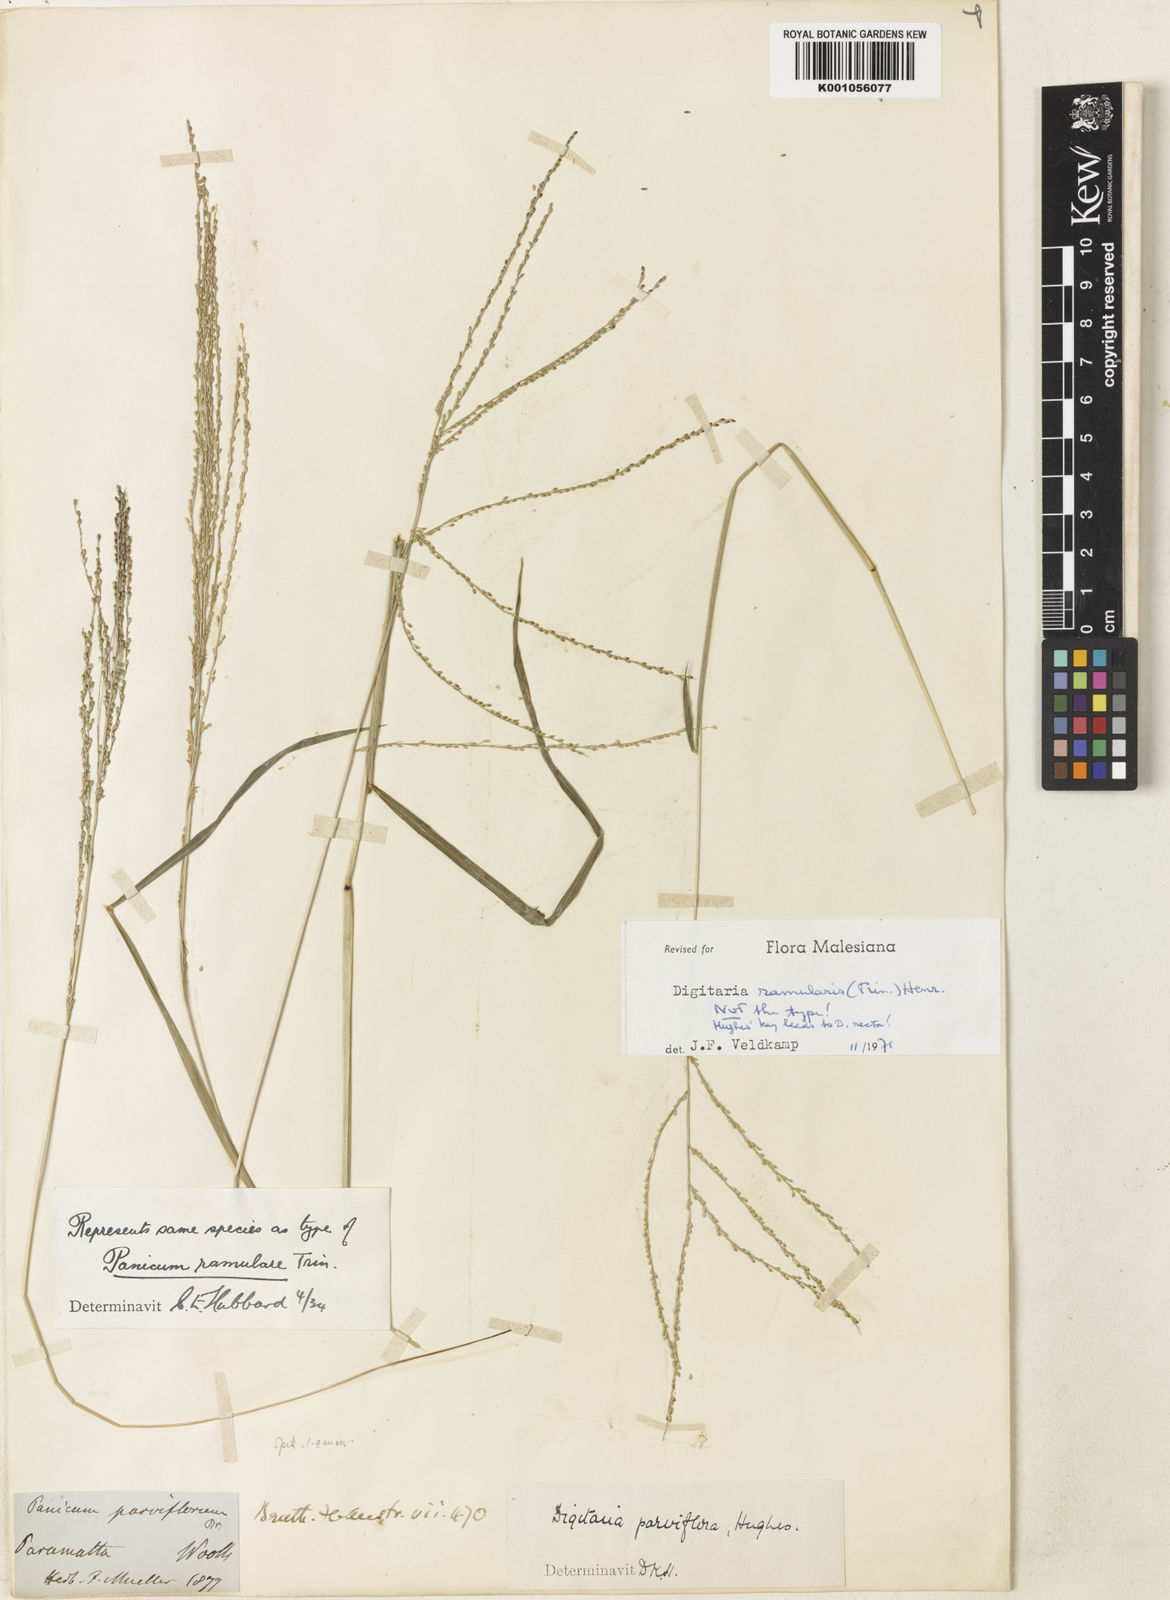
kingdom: Plantae
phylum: Tracheophyta
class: Liliopsida
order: Poales
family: Poaceae
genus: Digitaria
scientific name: Digitaria ramularis
